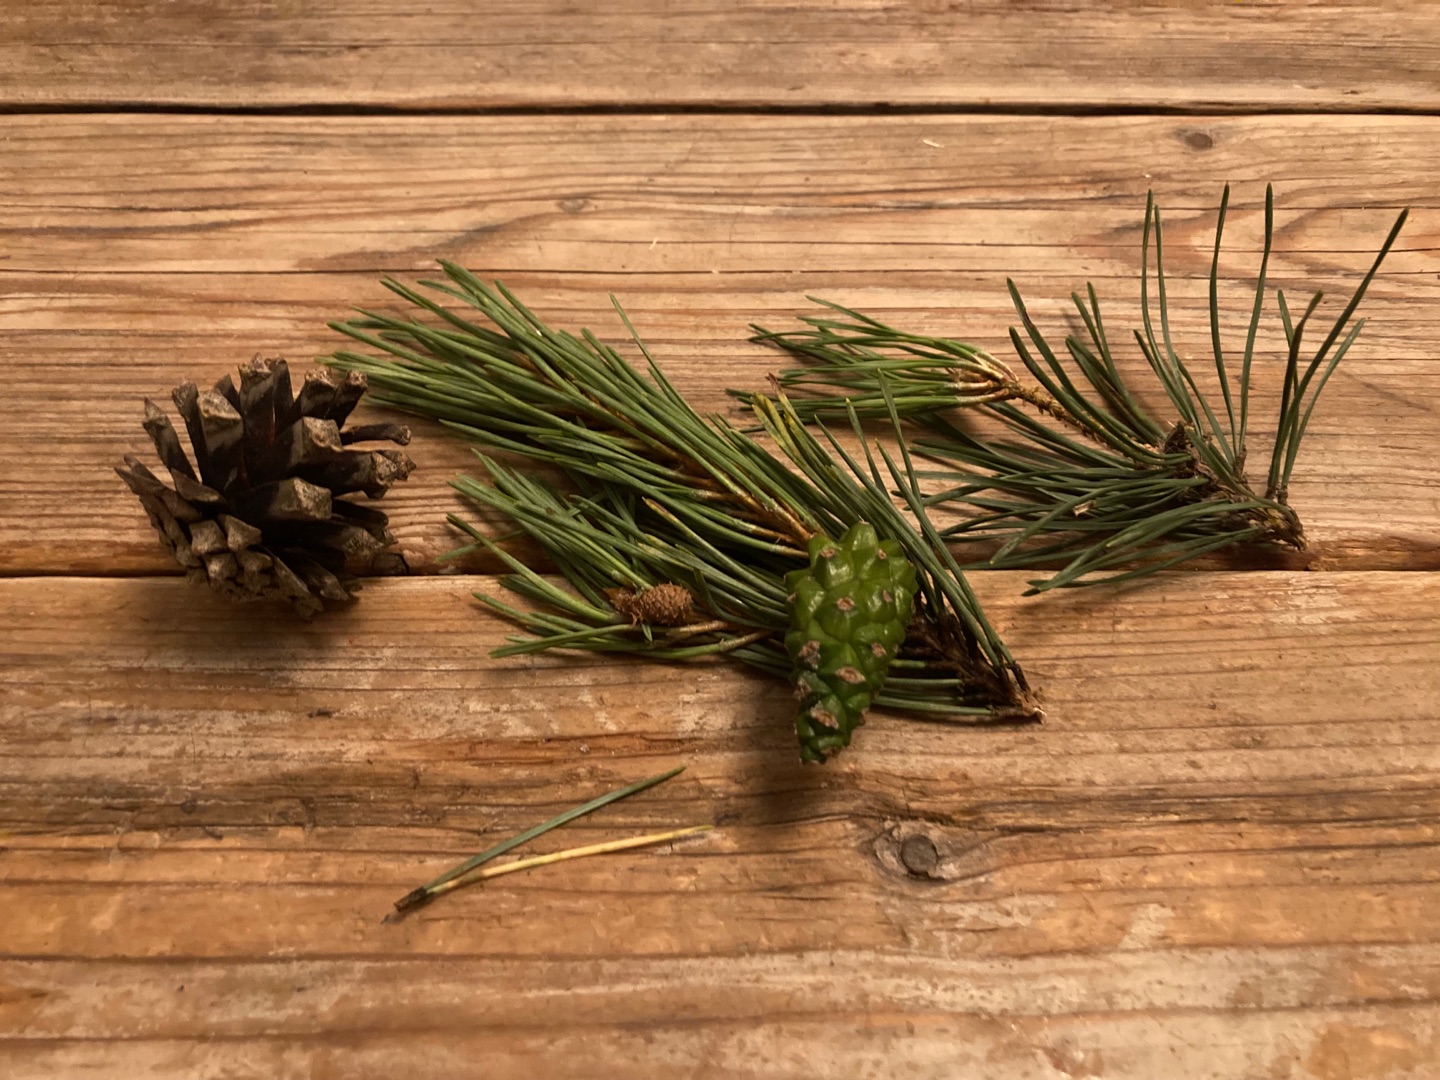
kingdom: Plantae
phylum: Tracheophyta
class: Pinopsida
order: Pinales
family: Pinaceae
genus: Pinus
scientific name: Pinus sylvestris
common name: Skov-fyr
